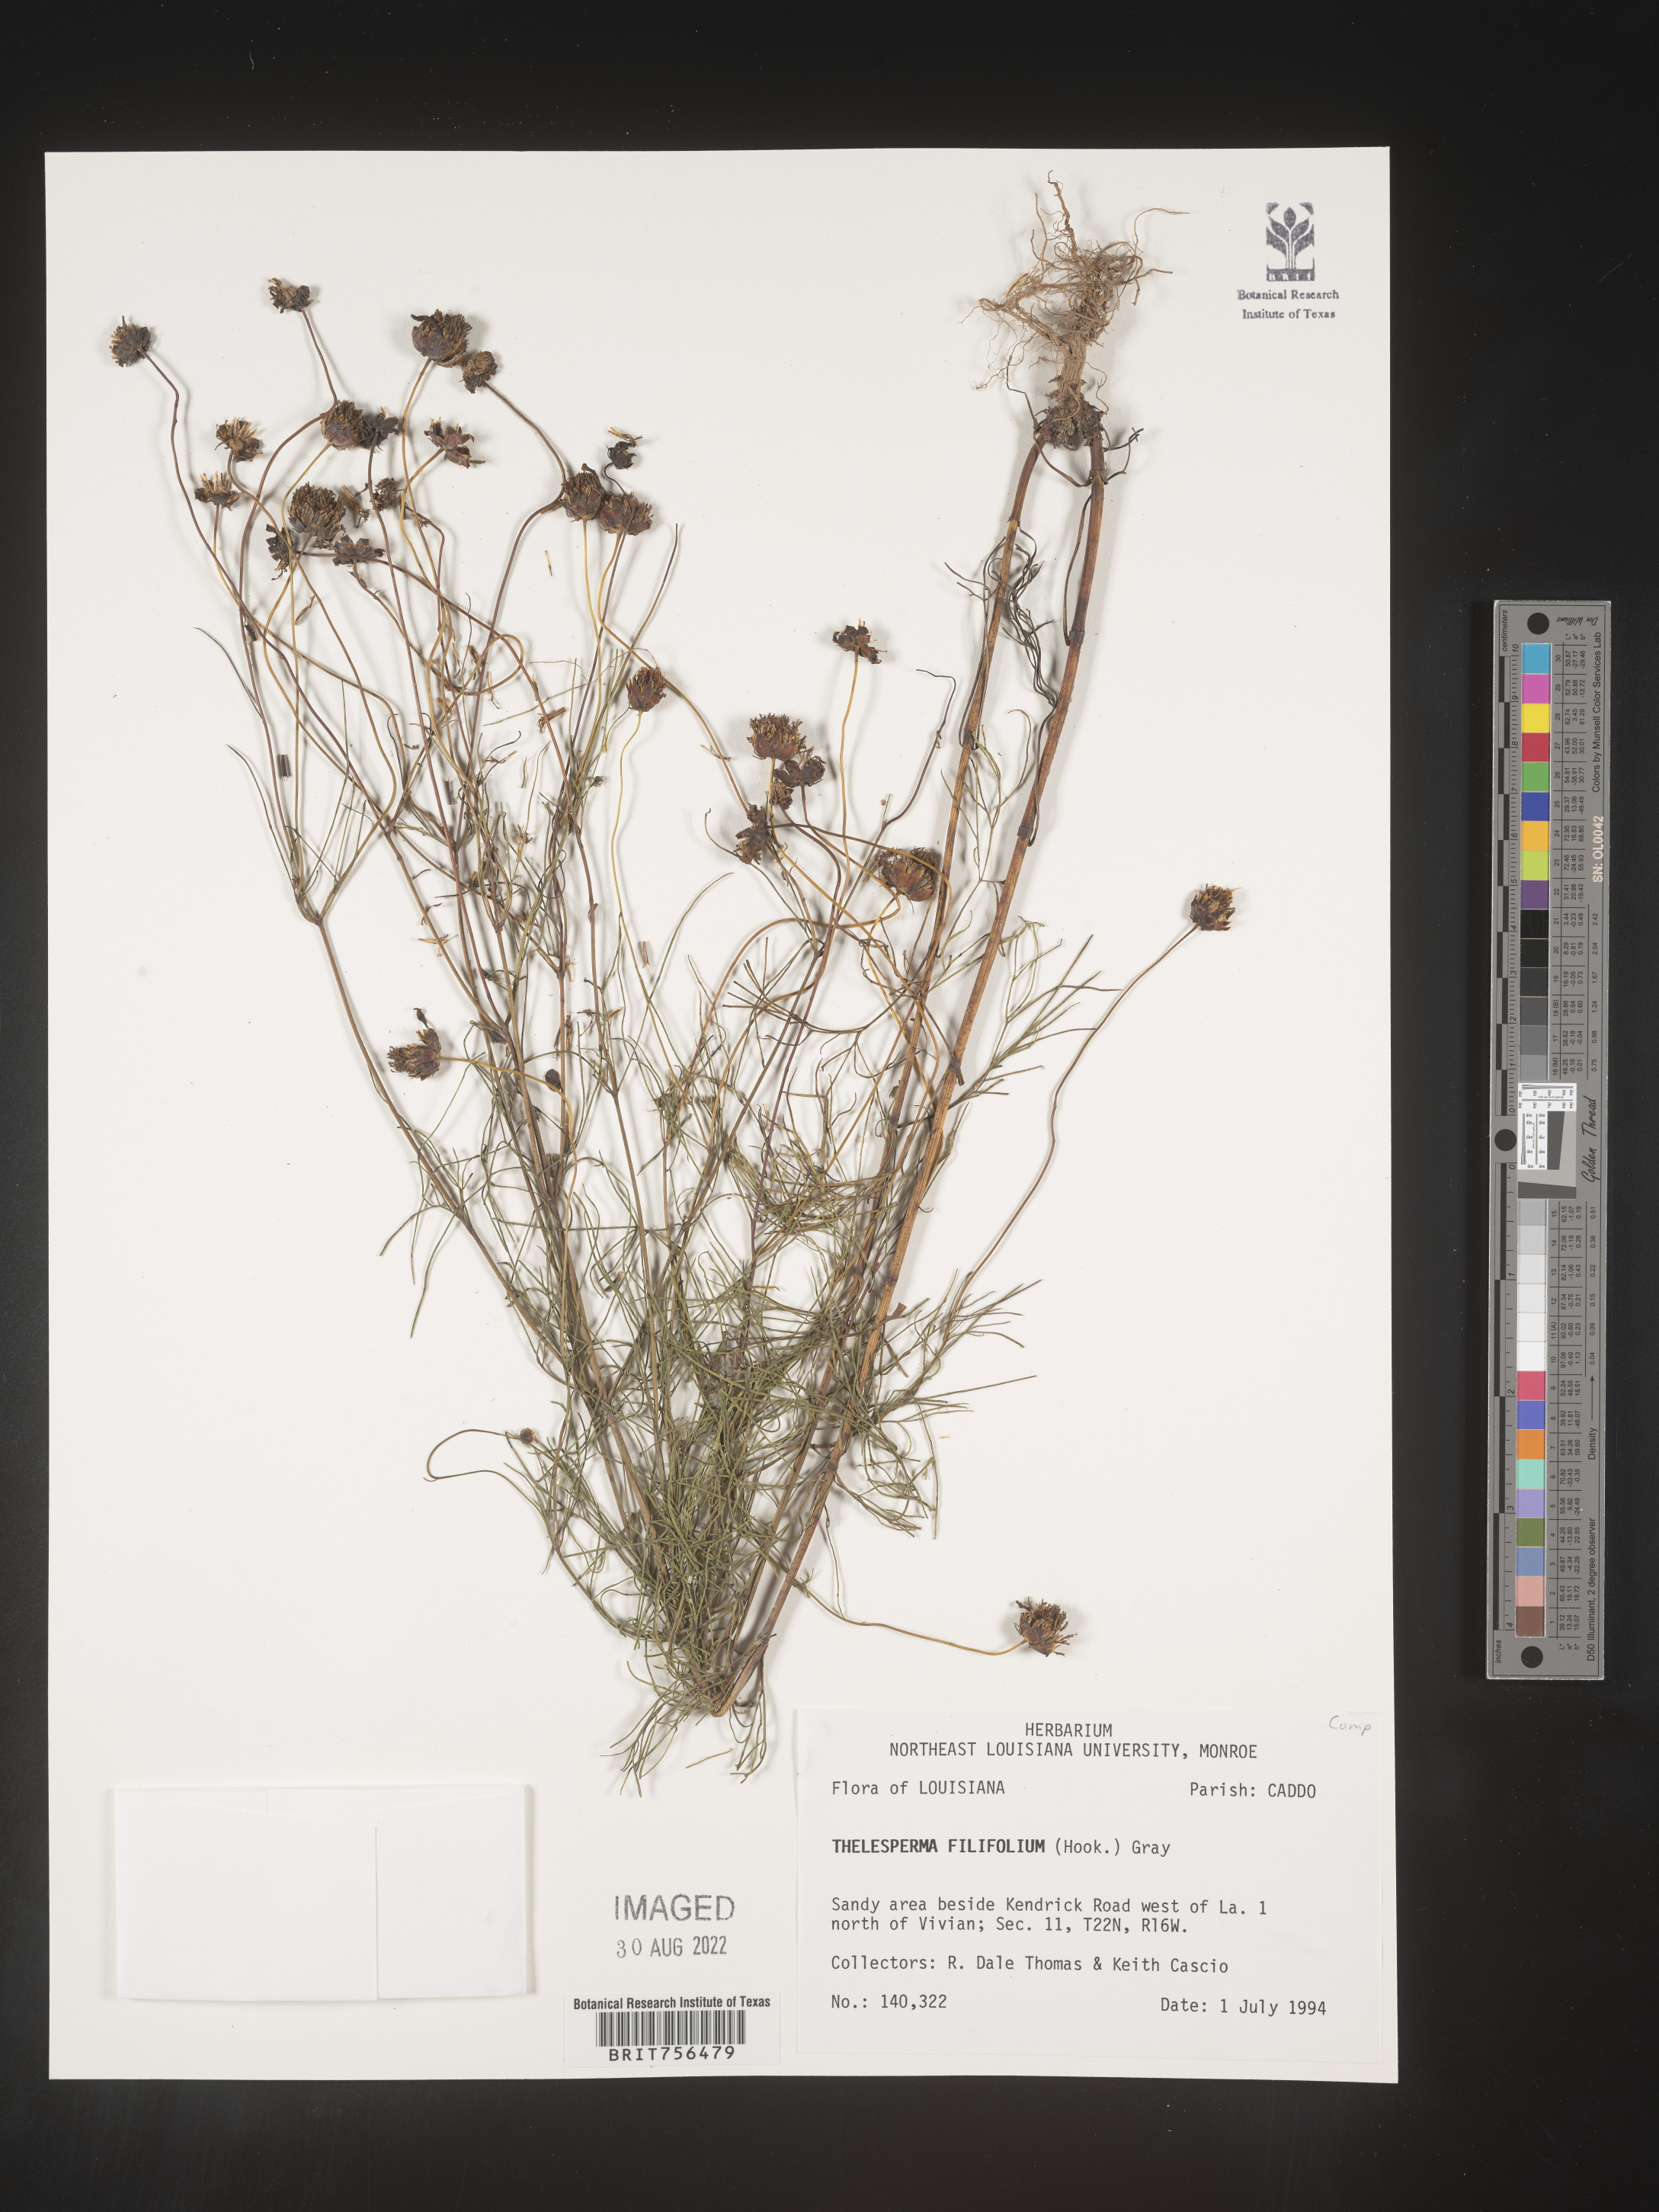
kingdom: Plantae
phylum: Tracheophyta
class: Magnoliopsida
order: Asterales
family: Asteraceae
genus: Thelesperma
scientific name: Thelesperma filifolium
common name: Stiff greenthread
